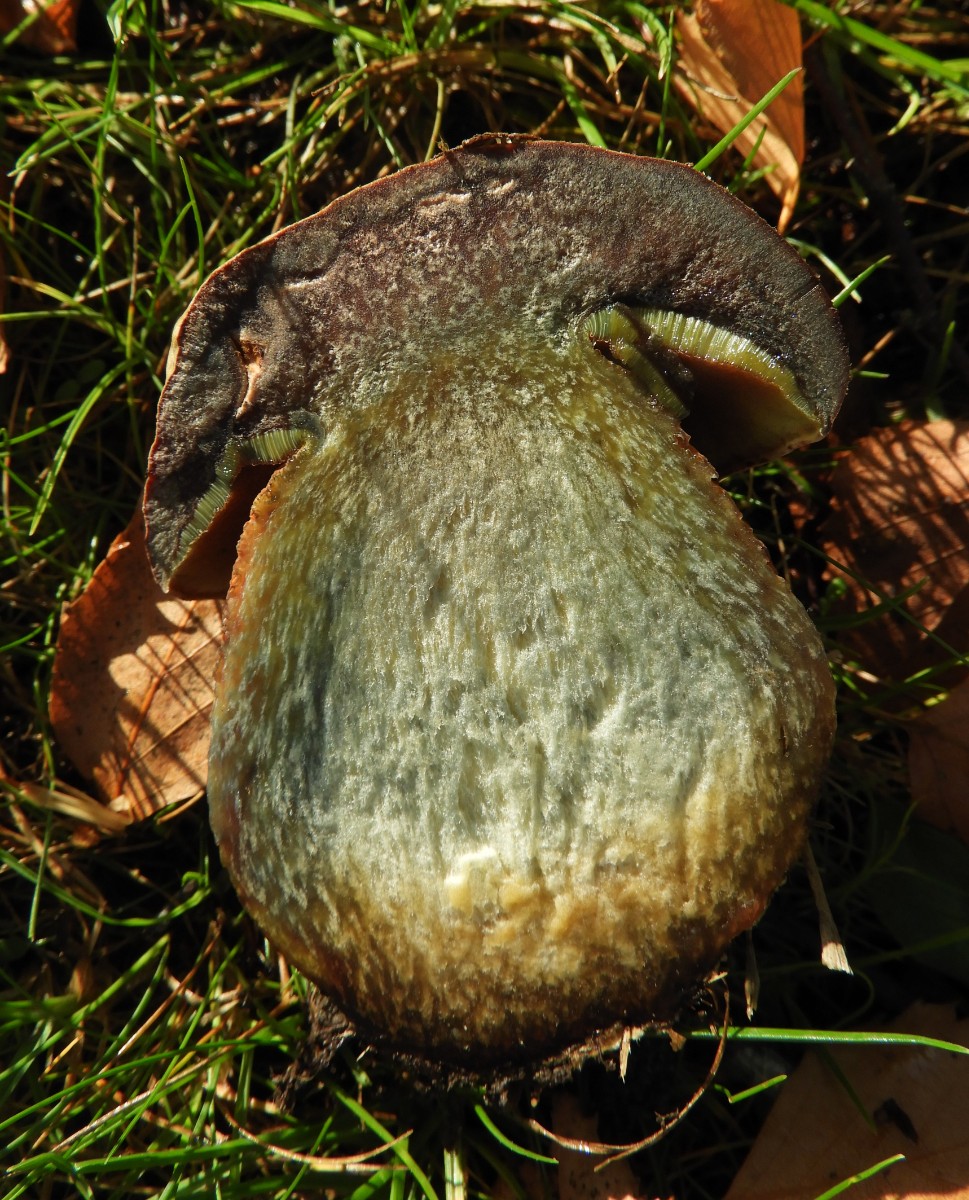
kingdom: Fungi
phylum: Basidiomycota
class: Agaricomycetes
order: Boletales
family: Boletaceae
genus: Suillellus
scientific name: Suillellus luridus
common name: netstokket indigorørhat
